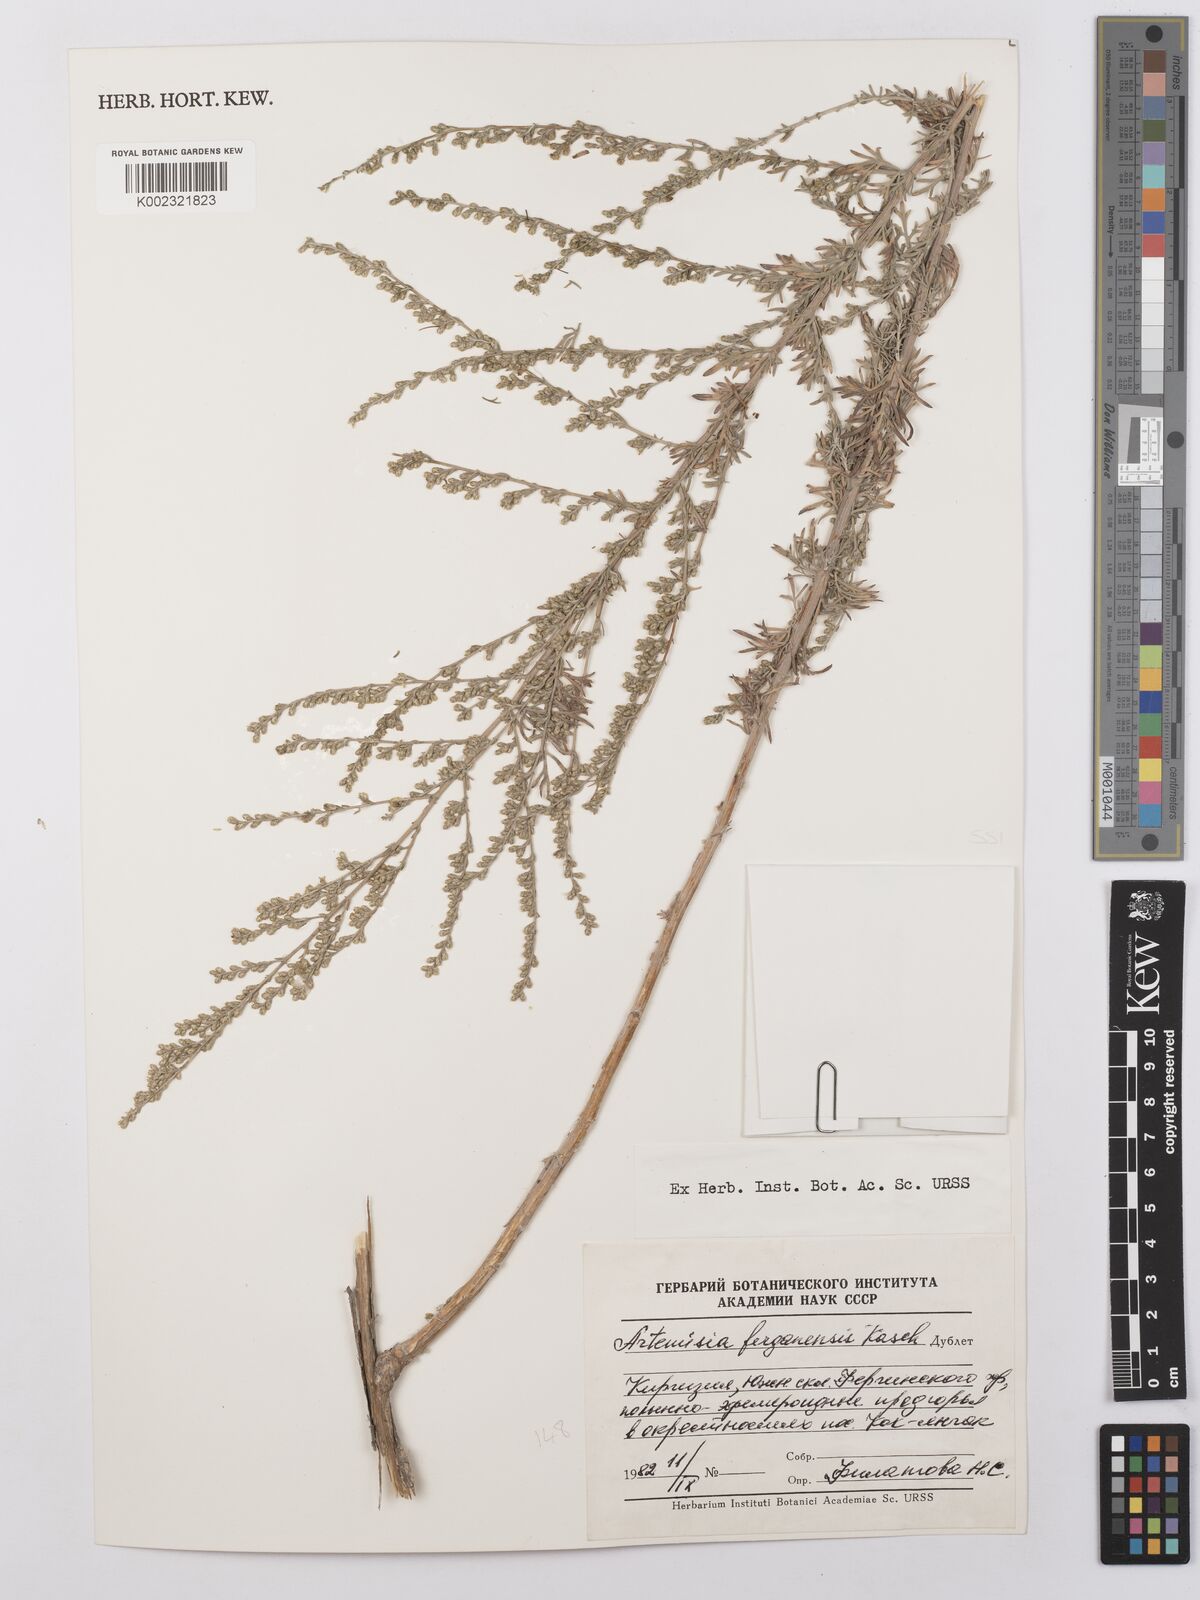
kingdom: Plantae
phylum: Tracheophyta
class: Magnoliopsida
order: Asterales
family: Asteraceae
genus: Artemisia
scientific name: Artemisia ferganensis
